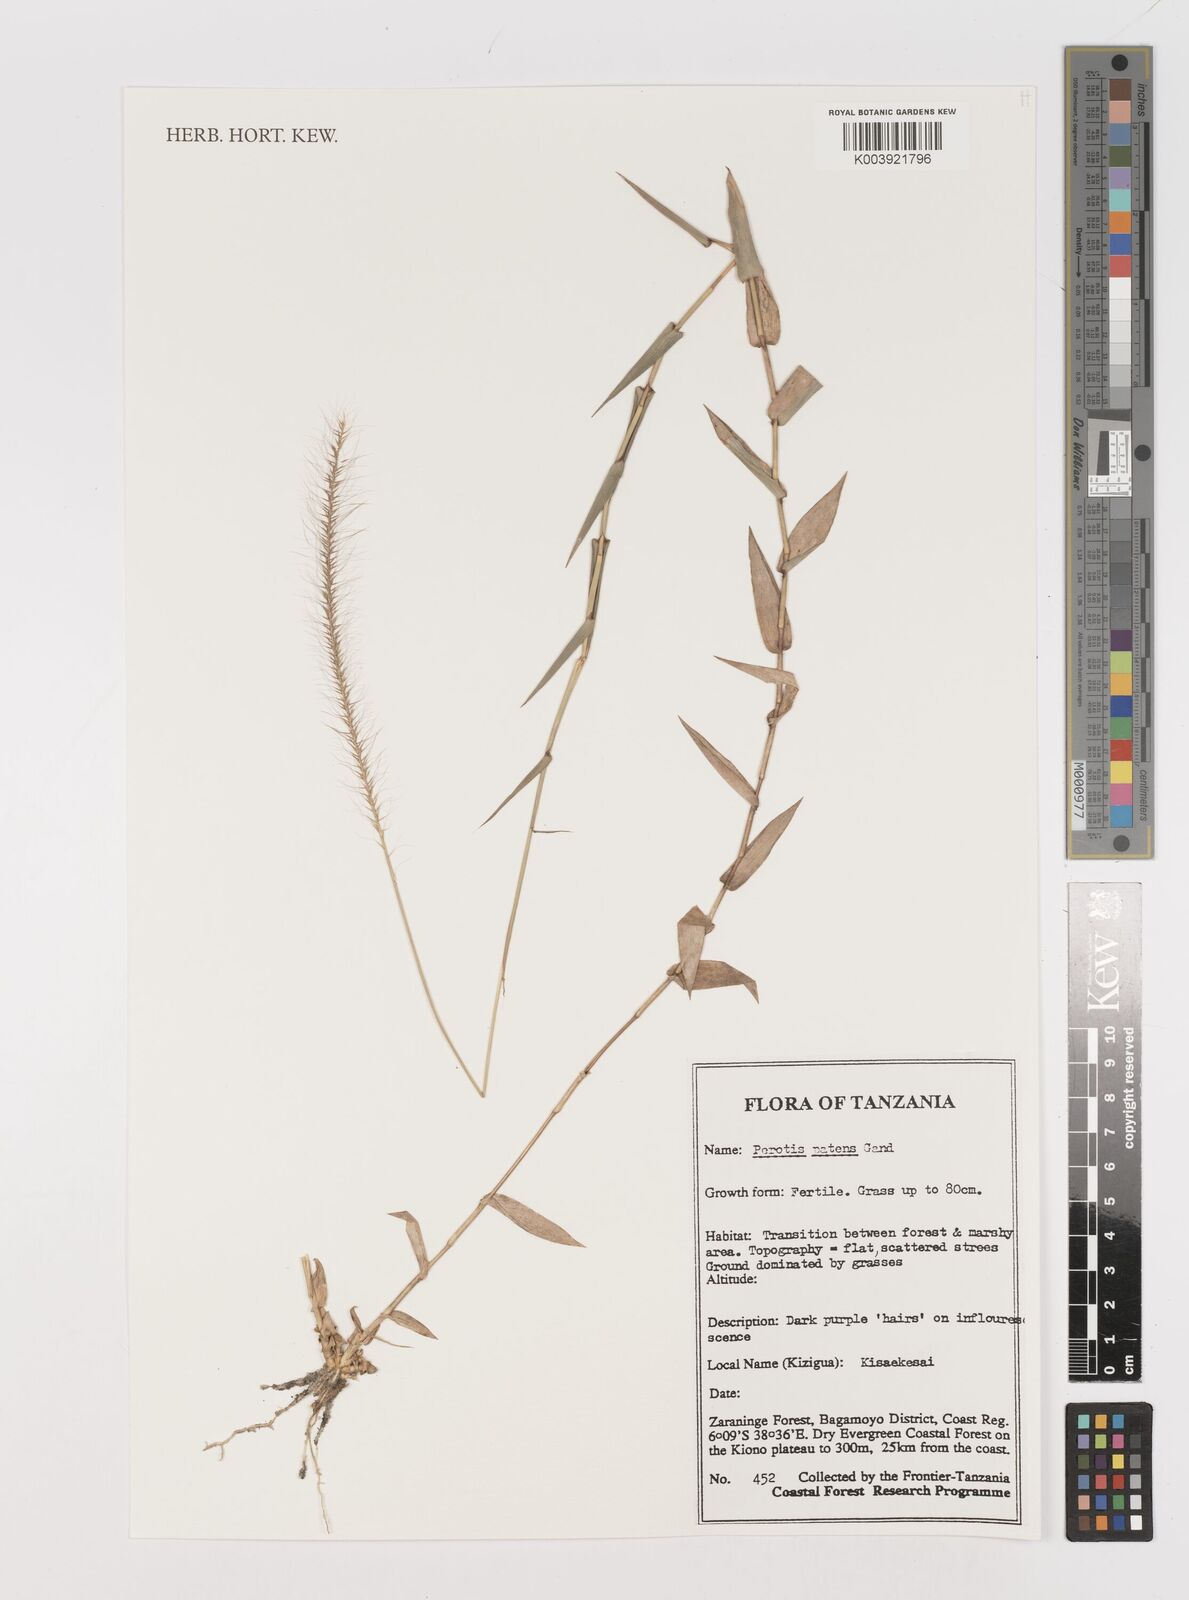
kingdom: Plantae
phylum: Tracheophyta
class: Liliopsida
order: Poales
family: Poaceae
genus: Perotis
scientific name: Perotis patens
